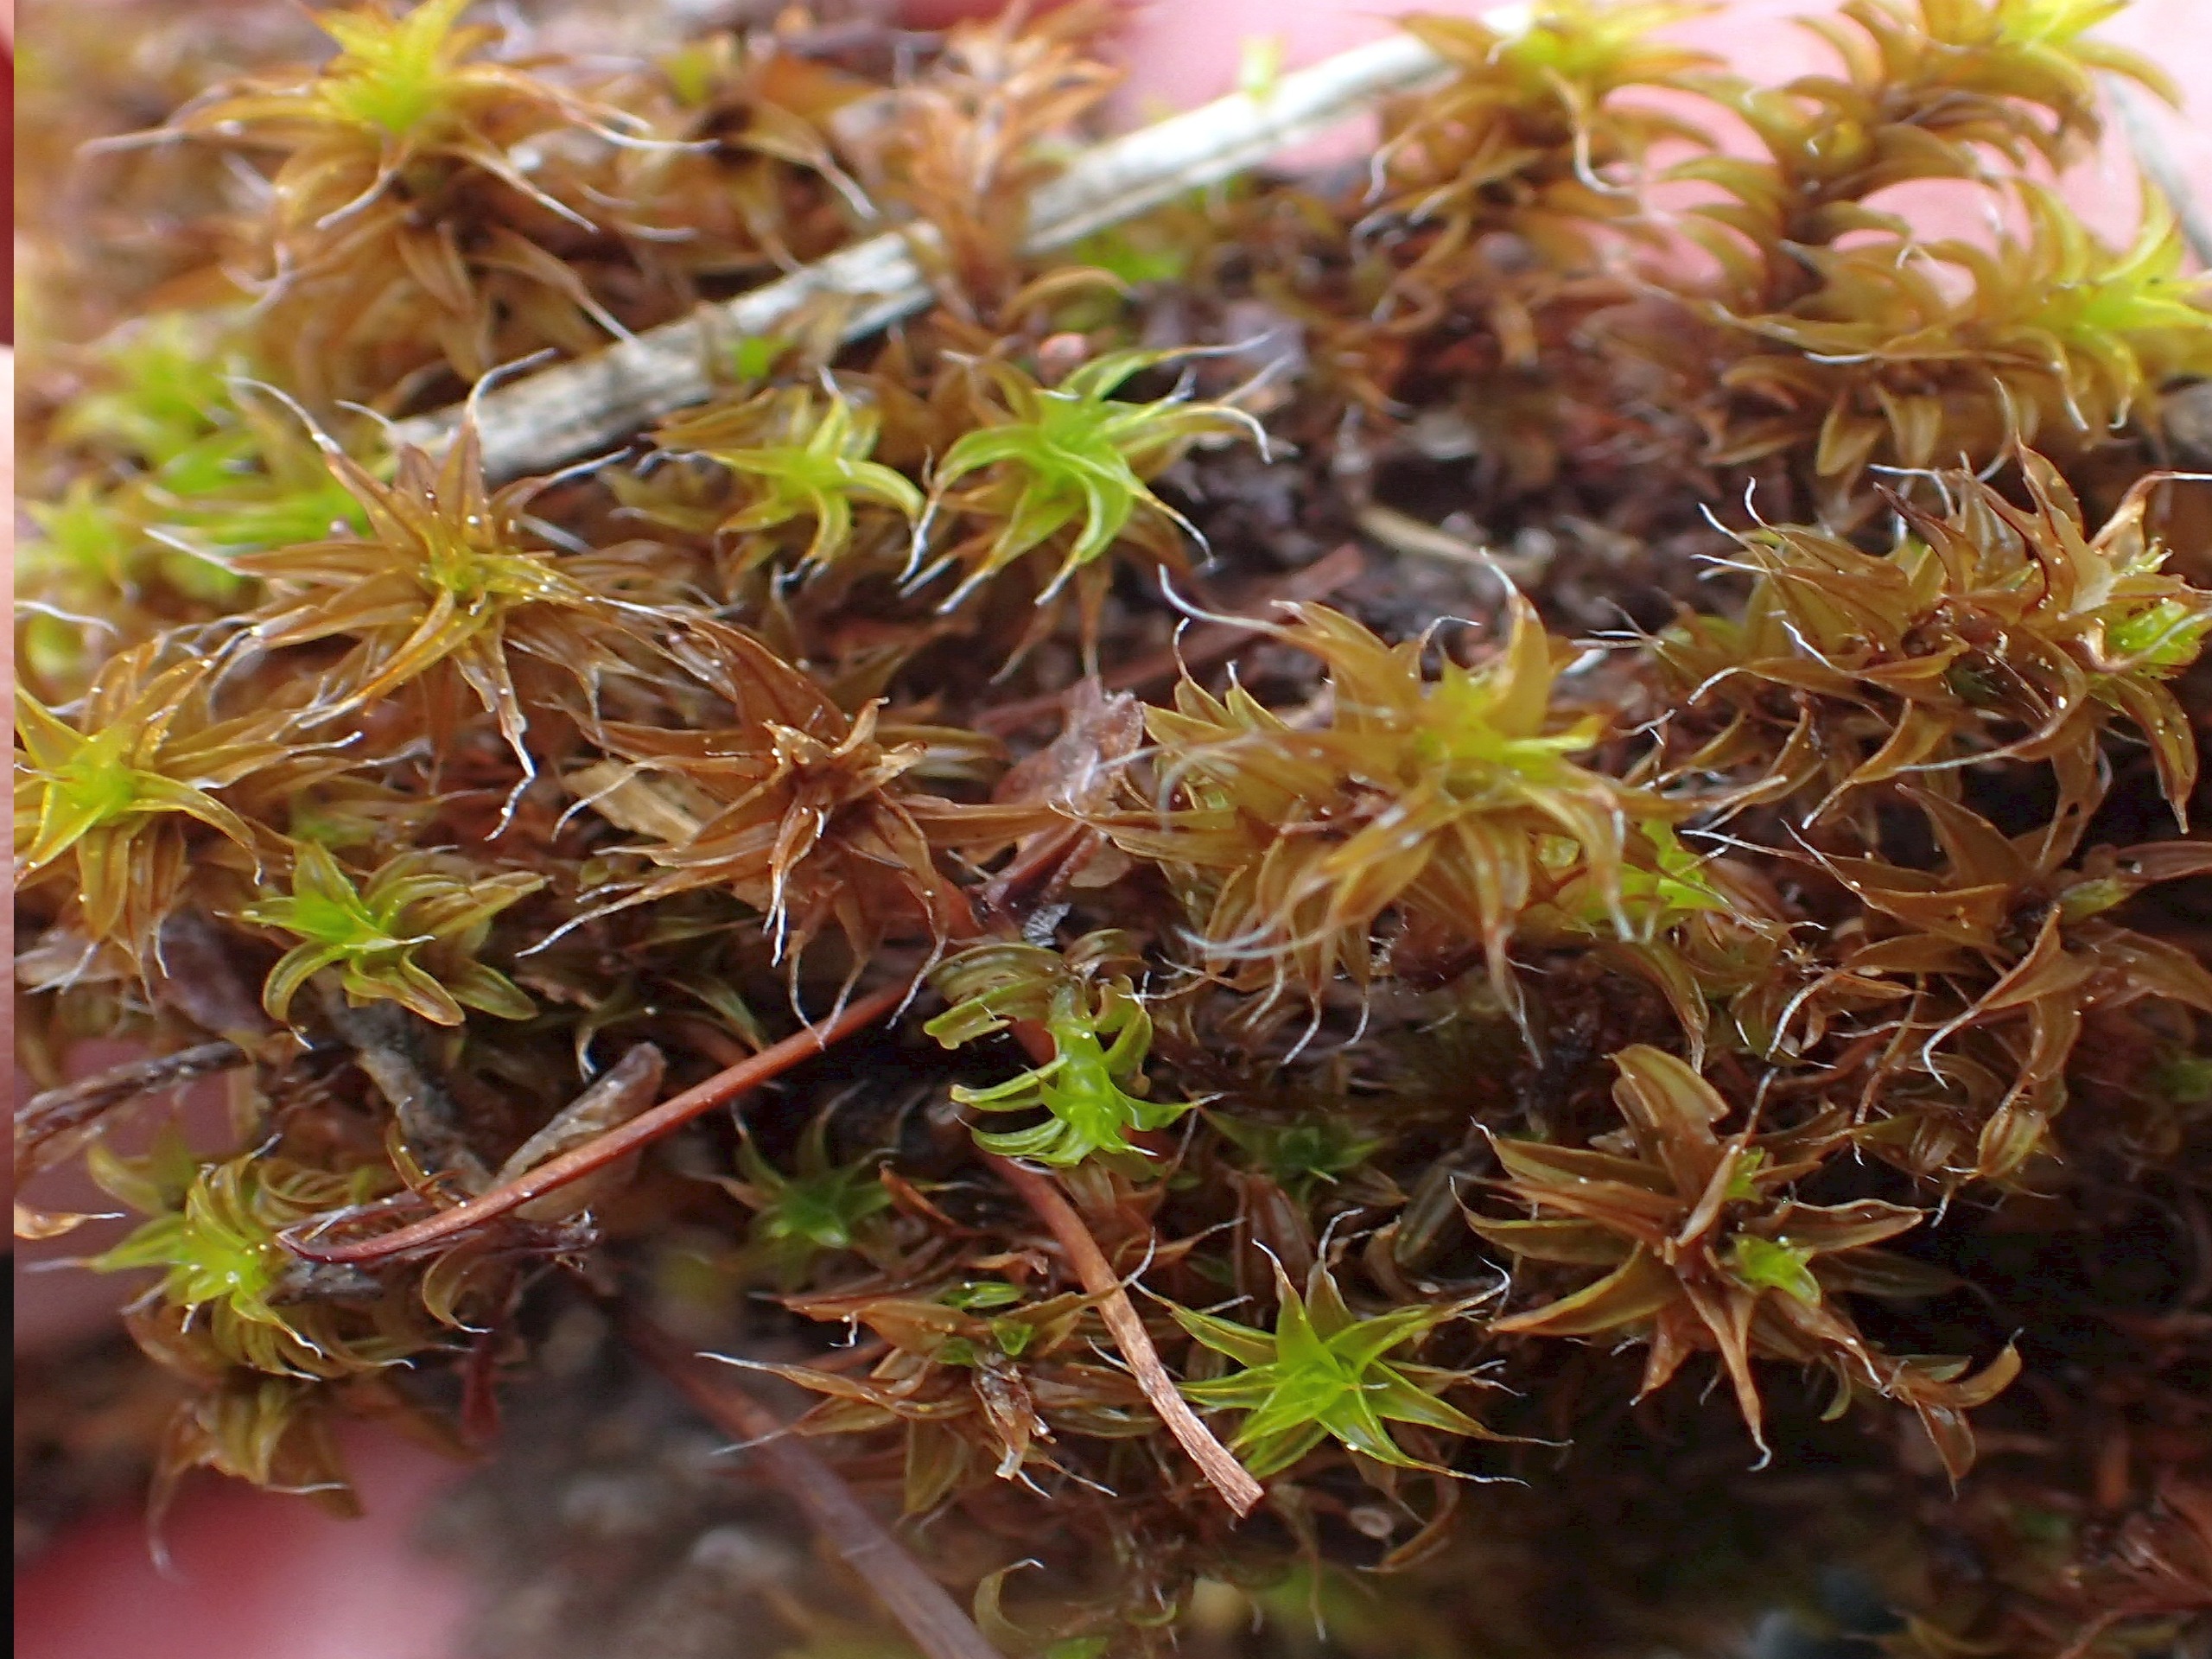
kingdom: Plantae
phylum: Bryophyta
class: Bryopsida
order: Pottiales
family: Pottiaceae
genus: Syntrichia
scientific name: Syntrichia ruralis
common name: Spidsbladet hårstjerne
